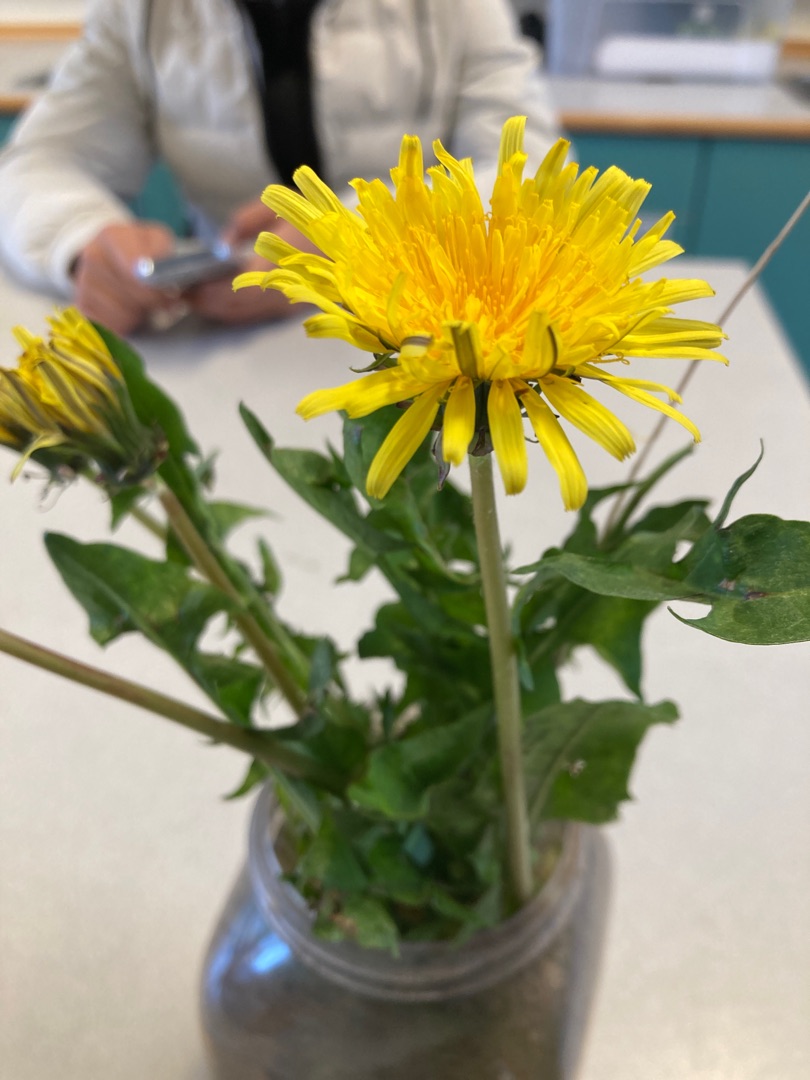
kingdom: Plantae
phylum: Tracheophyta
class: Magnoliopsida
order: Asterales
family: Asteraceae
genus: Taraxacum
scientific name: Taraxacum
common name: Mælkebøtteslægten
